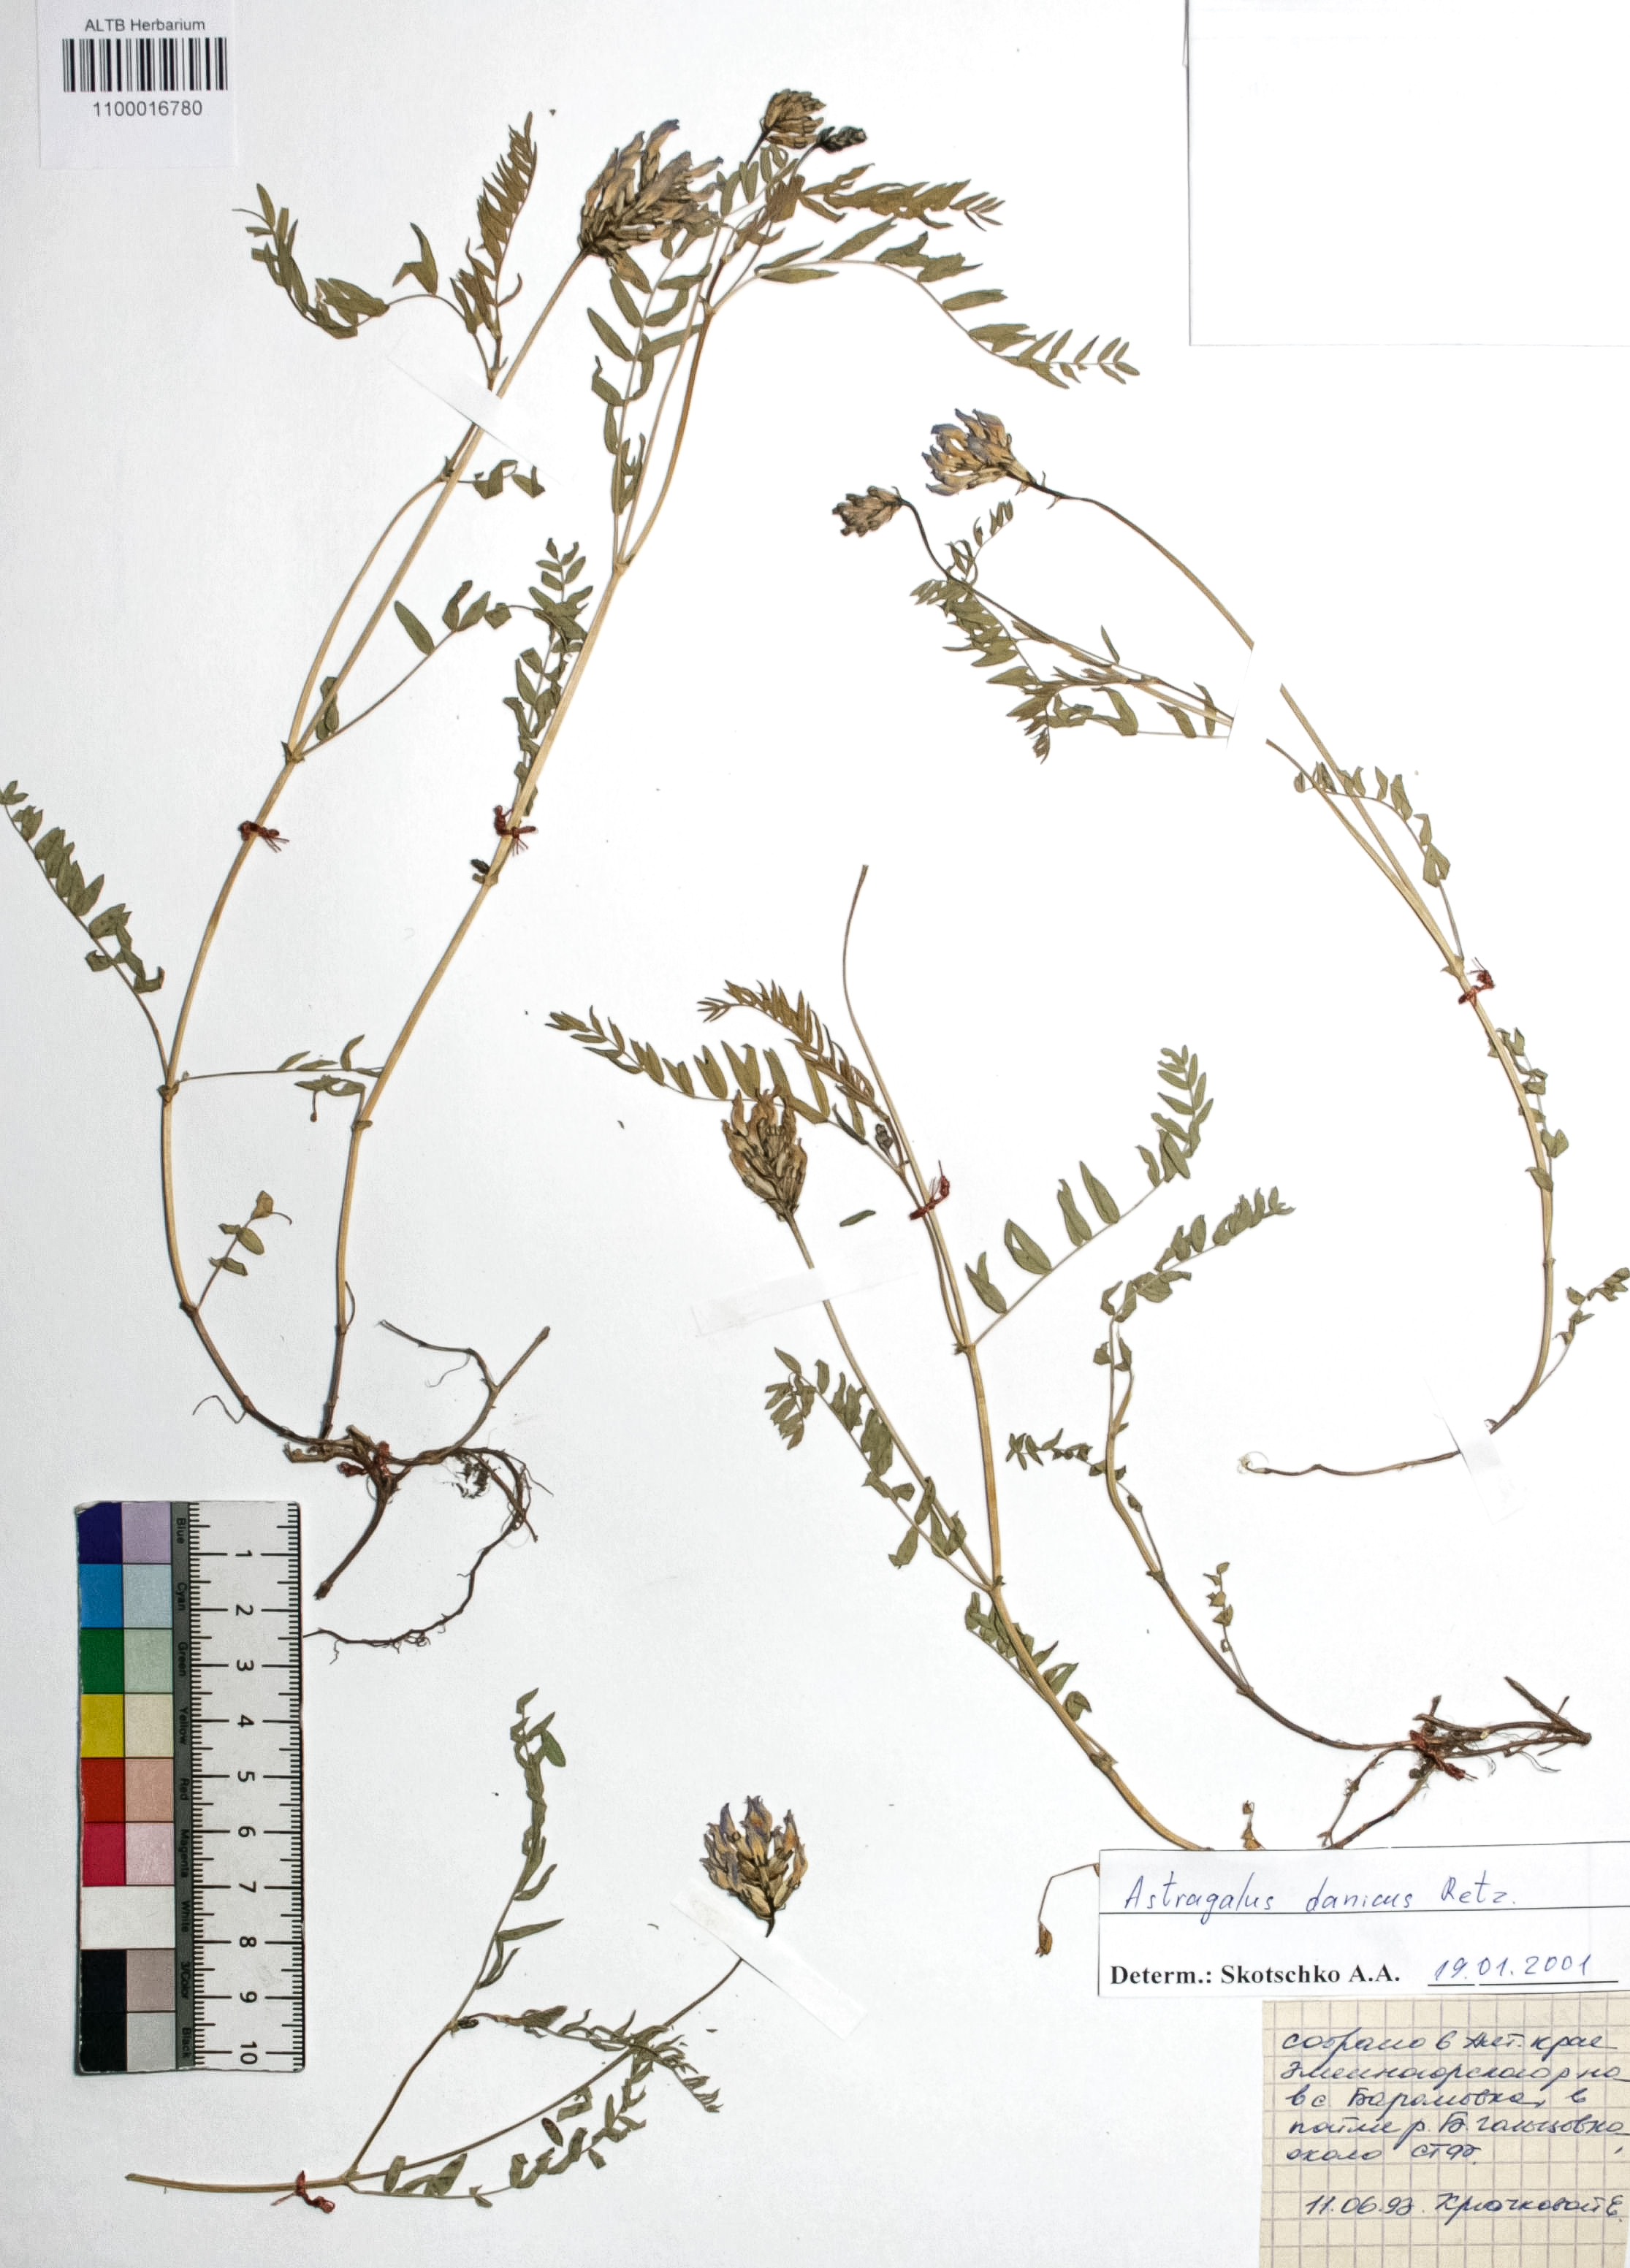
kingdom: Plantae
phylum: Tracheophyta
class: Magnoliopsida
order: Fabales
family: Fabaceae
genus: Astragalus
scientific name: Astragalus danicus
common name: Purple milk-vetch
